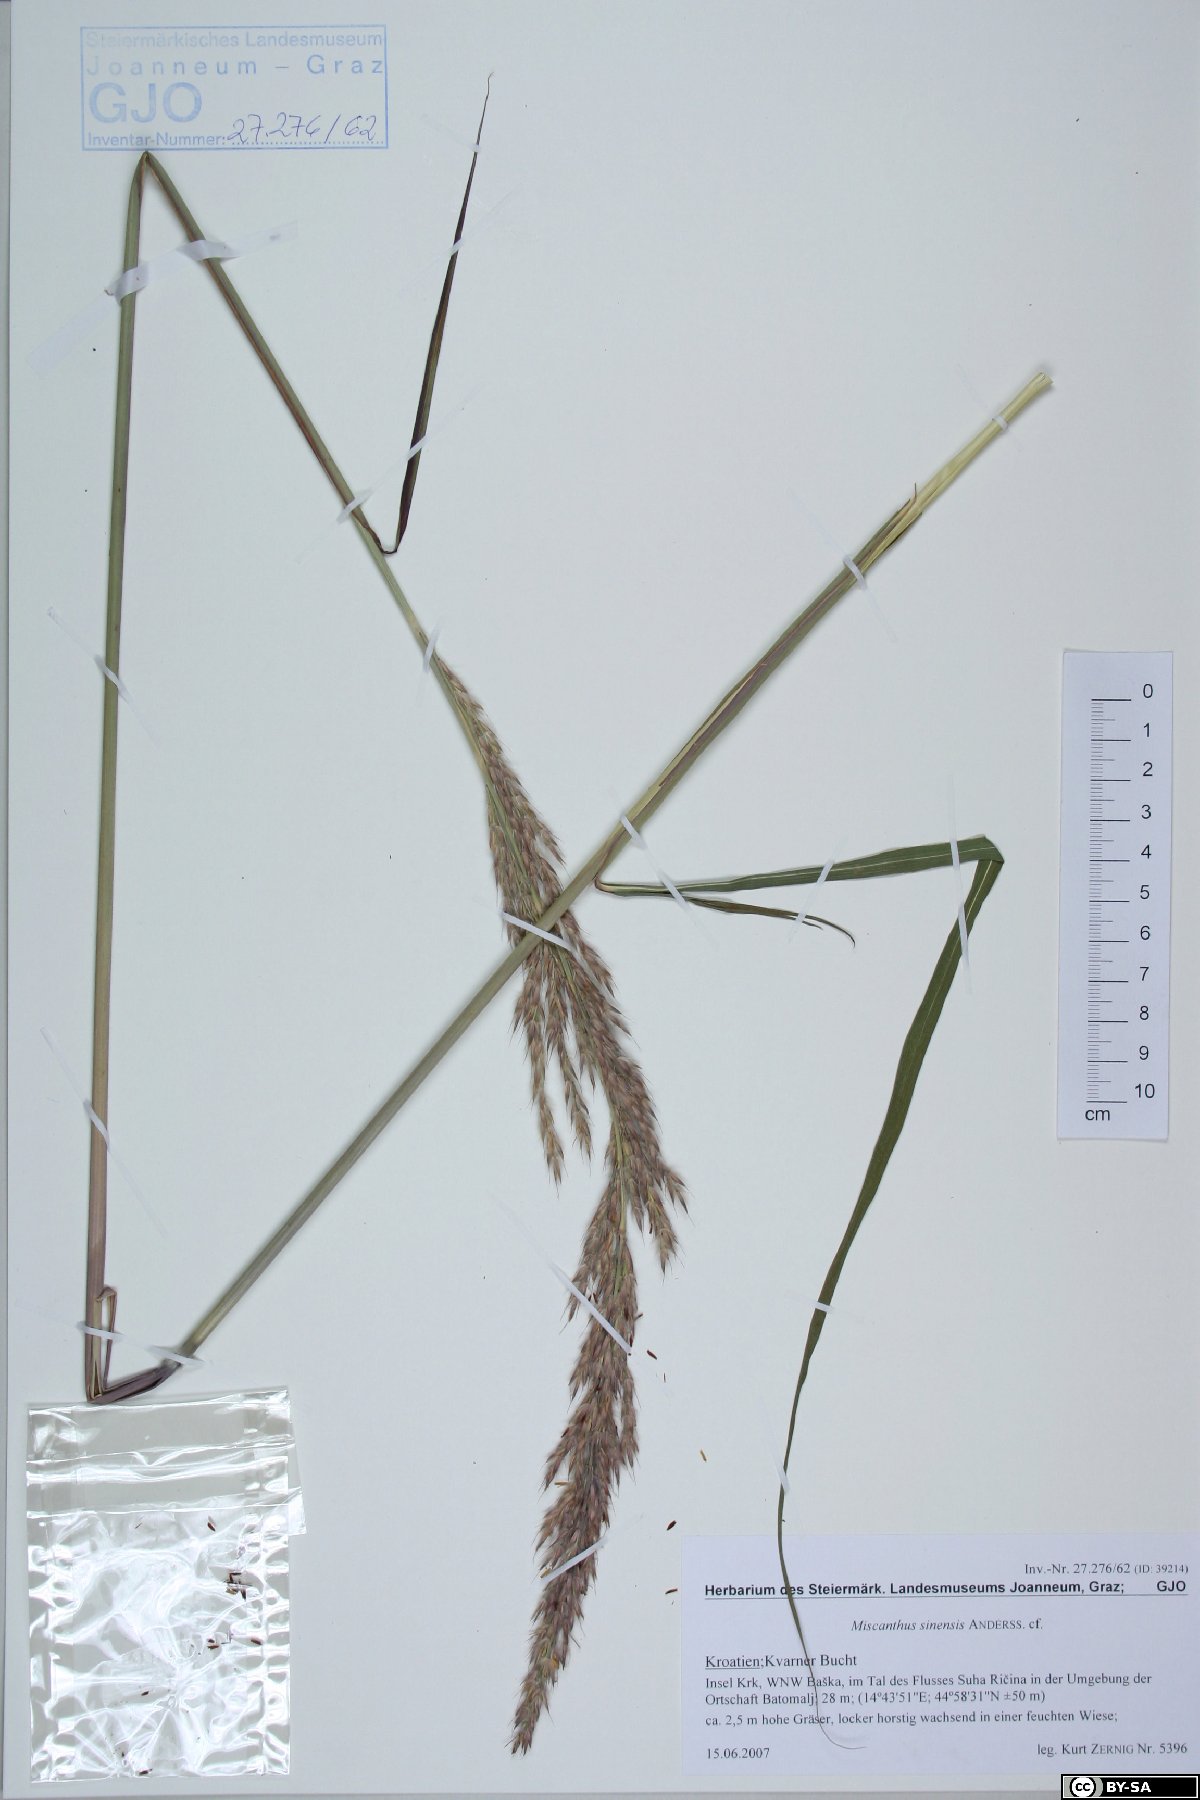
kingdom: Plantae
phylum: Tracheophyta
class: Liliopsida
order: Poales
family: Poaceae
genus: Miscanthus
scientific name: Miscanthus sinensis
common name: Chinese silvergrass
